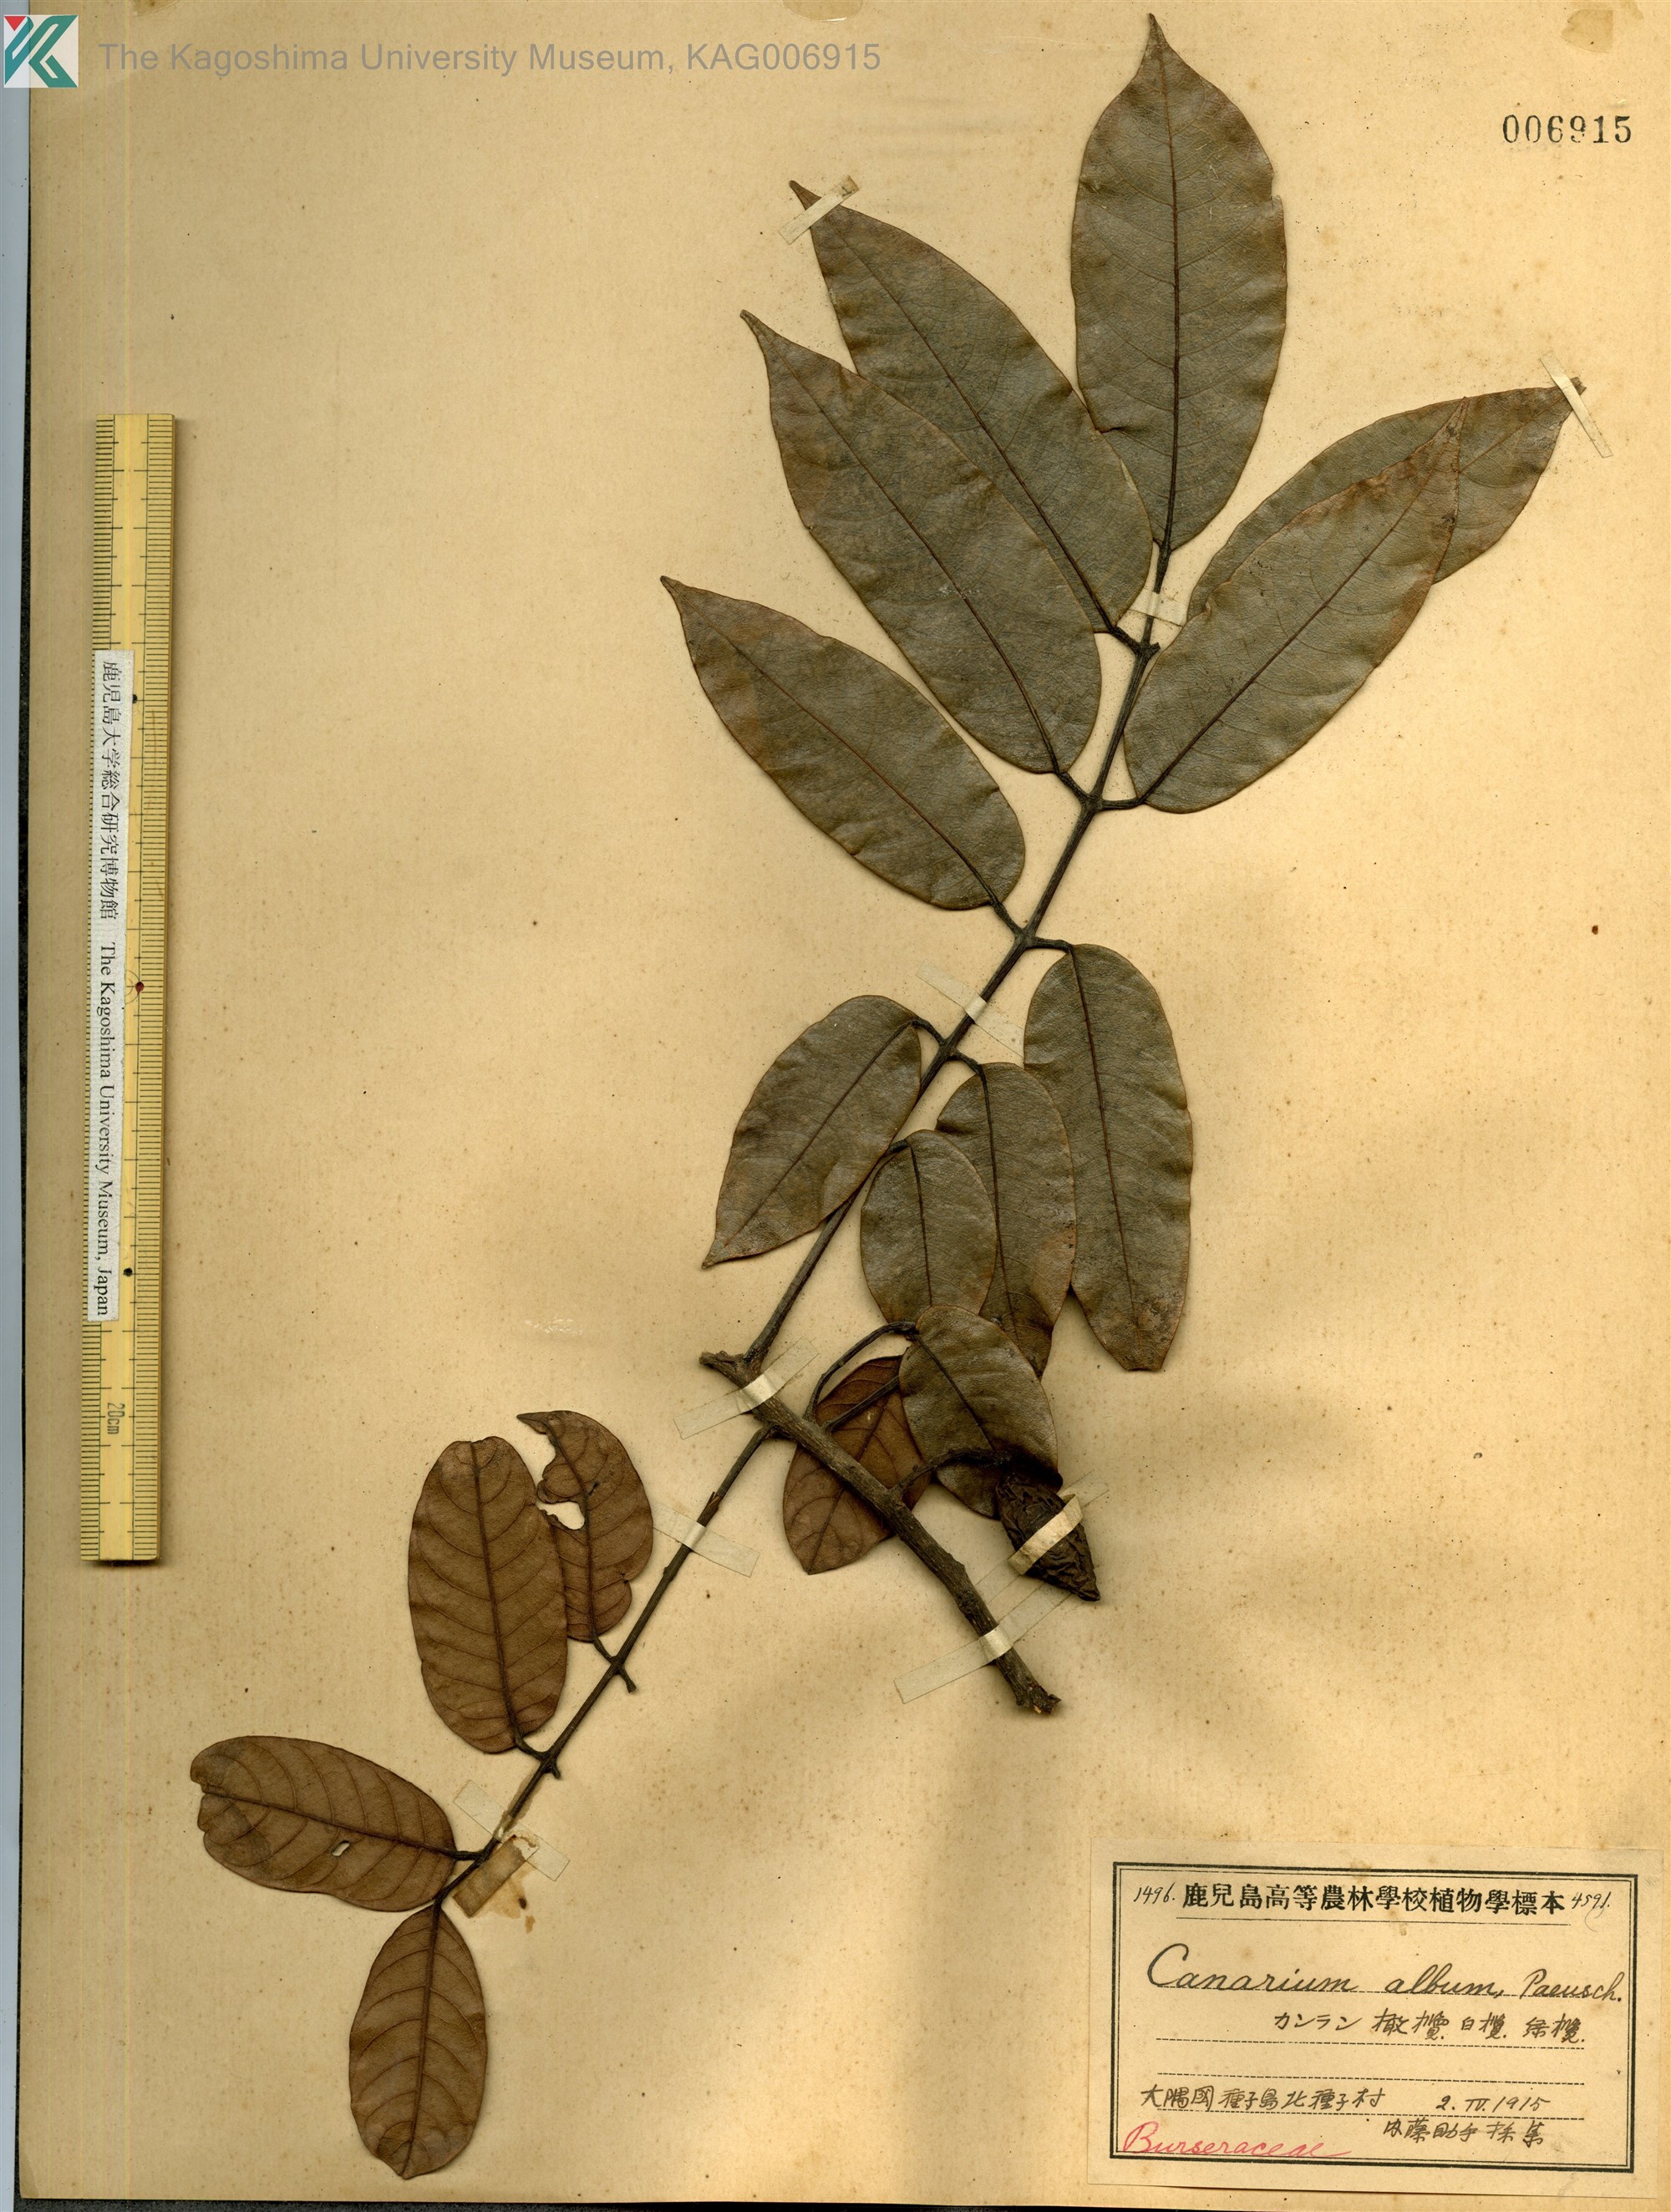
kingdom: Plantae
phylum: Tracheophyta
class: Magnoliopsida
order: Sapindales
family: Burseraceae
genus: Canarium
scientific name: Canarium album
